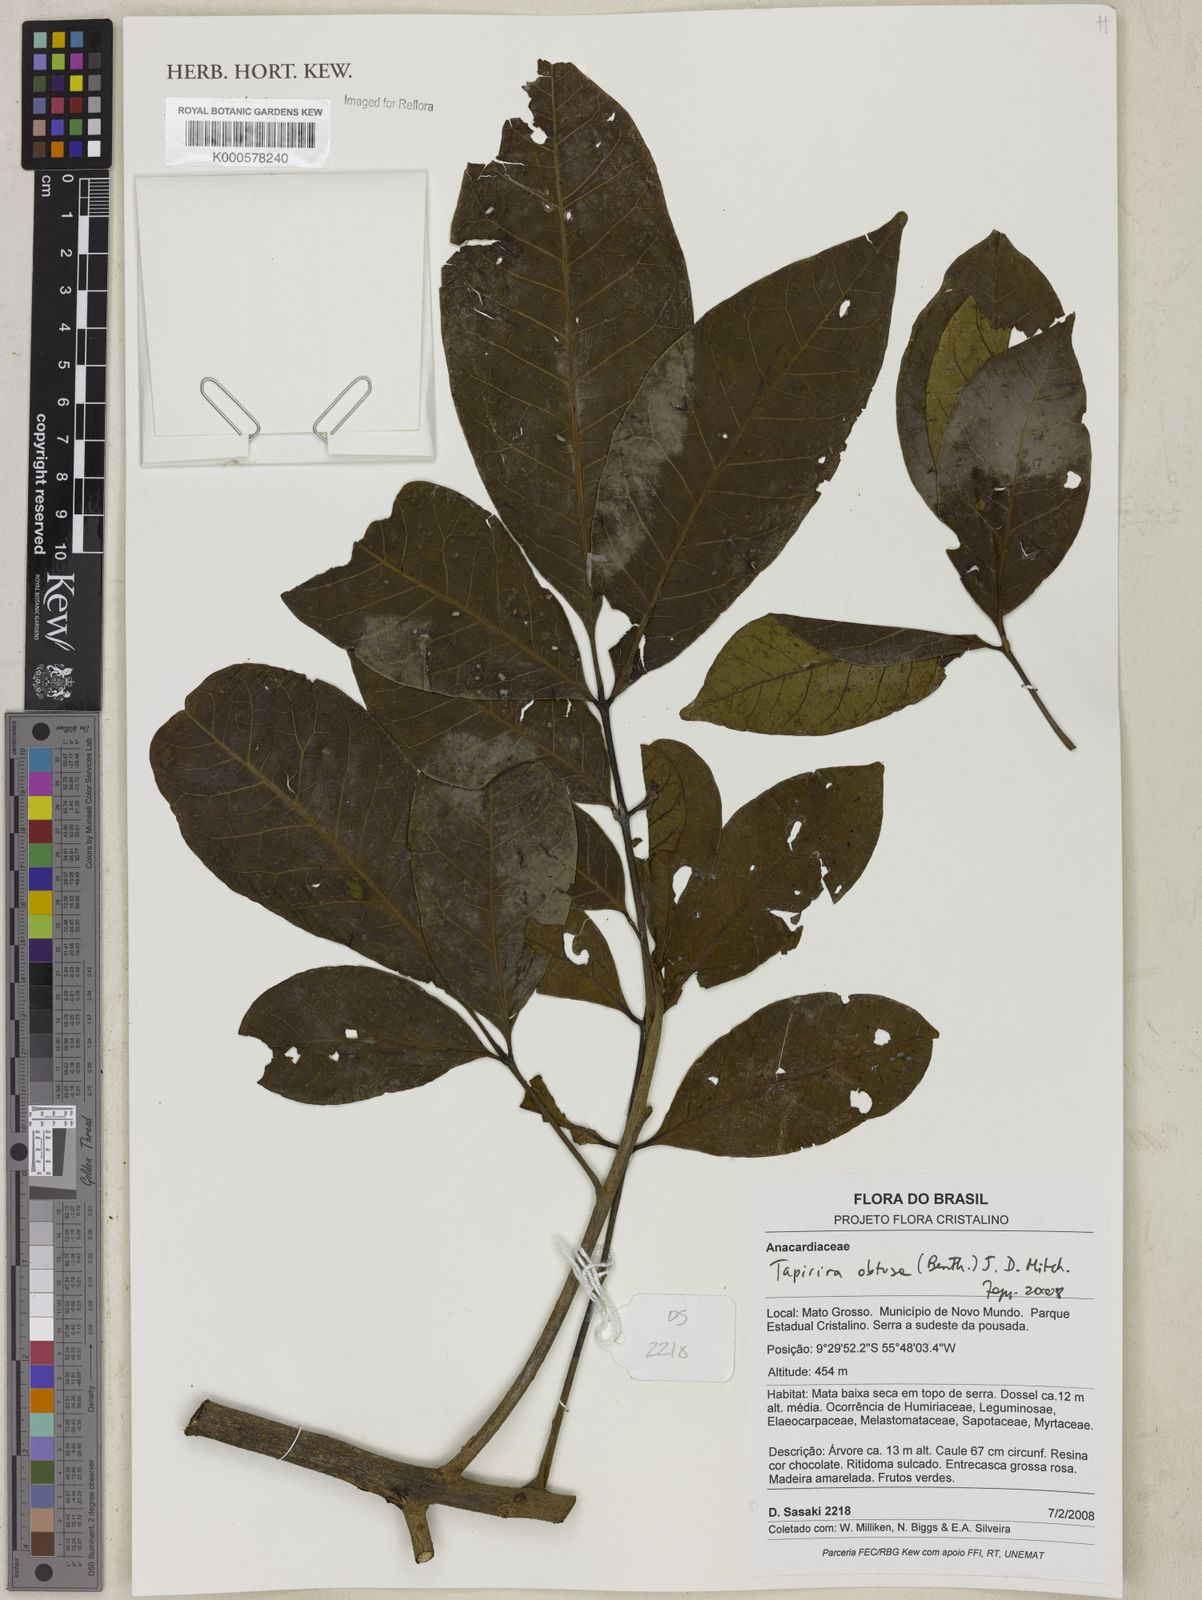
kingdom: Plantae
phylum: Tracheophyta
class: Magnoliopsida
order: Sapindales
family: Anacardiaceae
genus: Tapirira
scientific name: Tapirira obtusa
